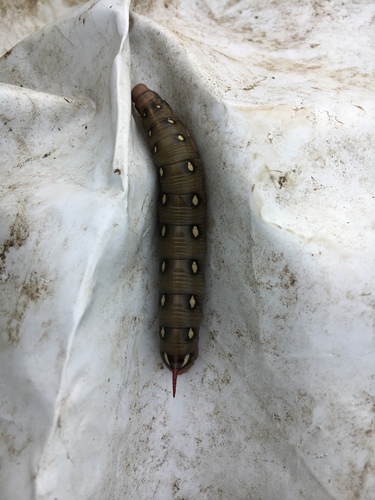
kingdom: Animalia
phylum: Arthropoda
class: Insecta
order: Lepidoptera
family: Sphingidae
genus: Hyles
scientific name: Hyles gallii
